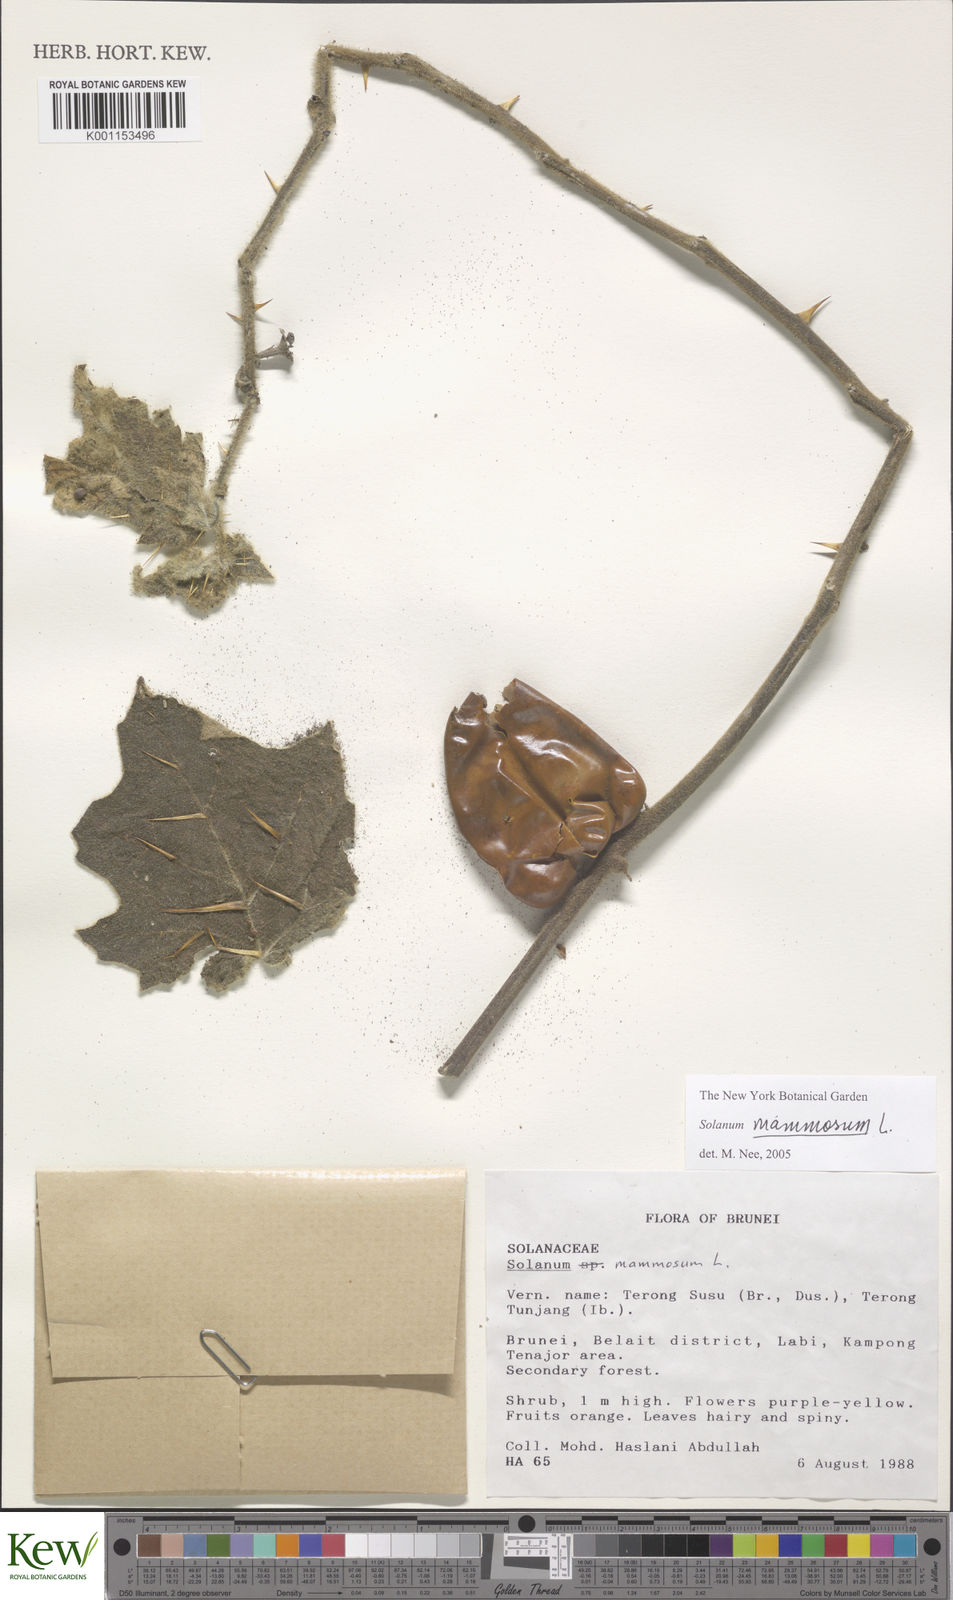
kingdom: Plantae
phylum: Tracheophyta
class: Magnoliopsida
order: Solanales
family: Solanaceae
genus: Solanum
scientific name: Solanum mammosum
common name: Nipple fruit
